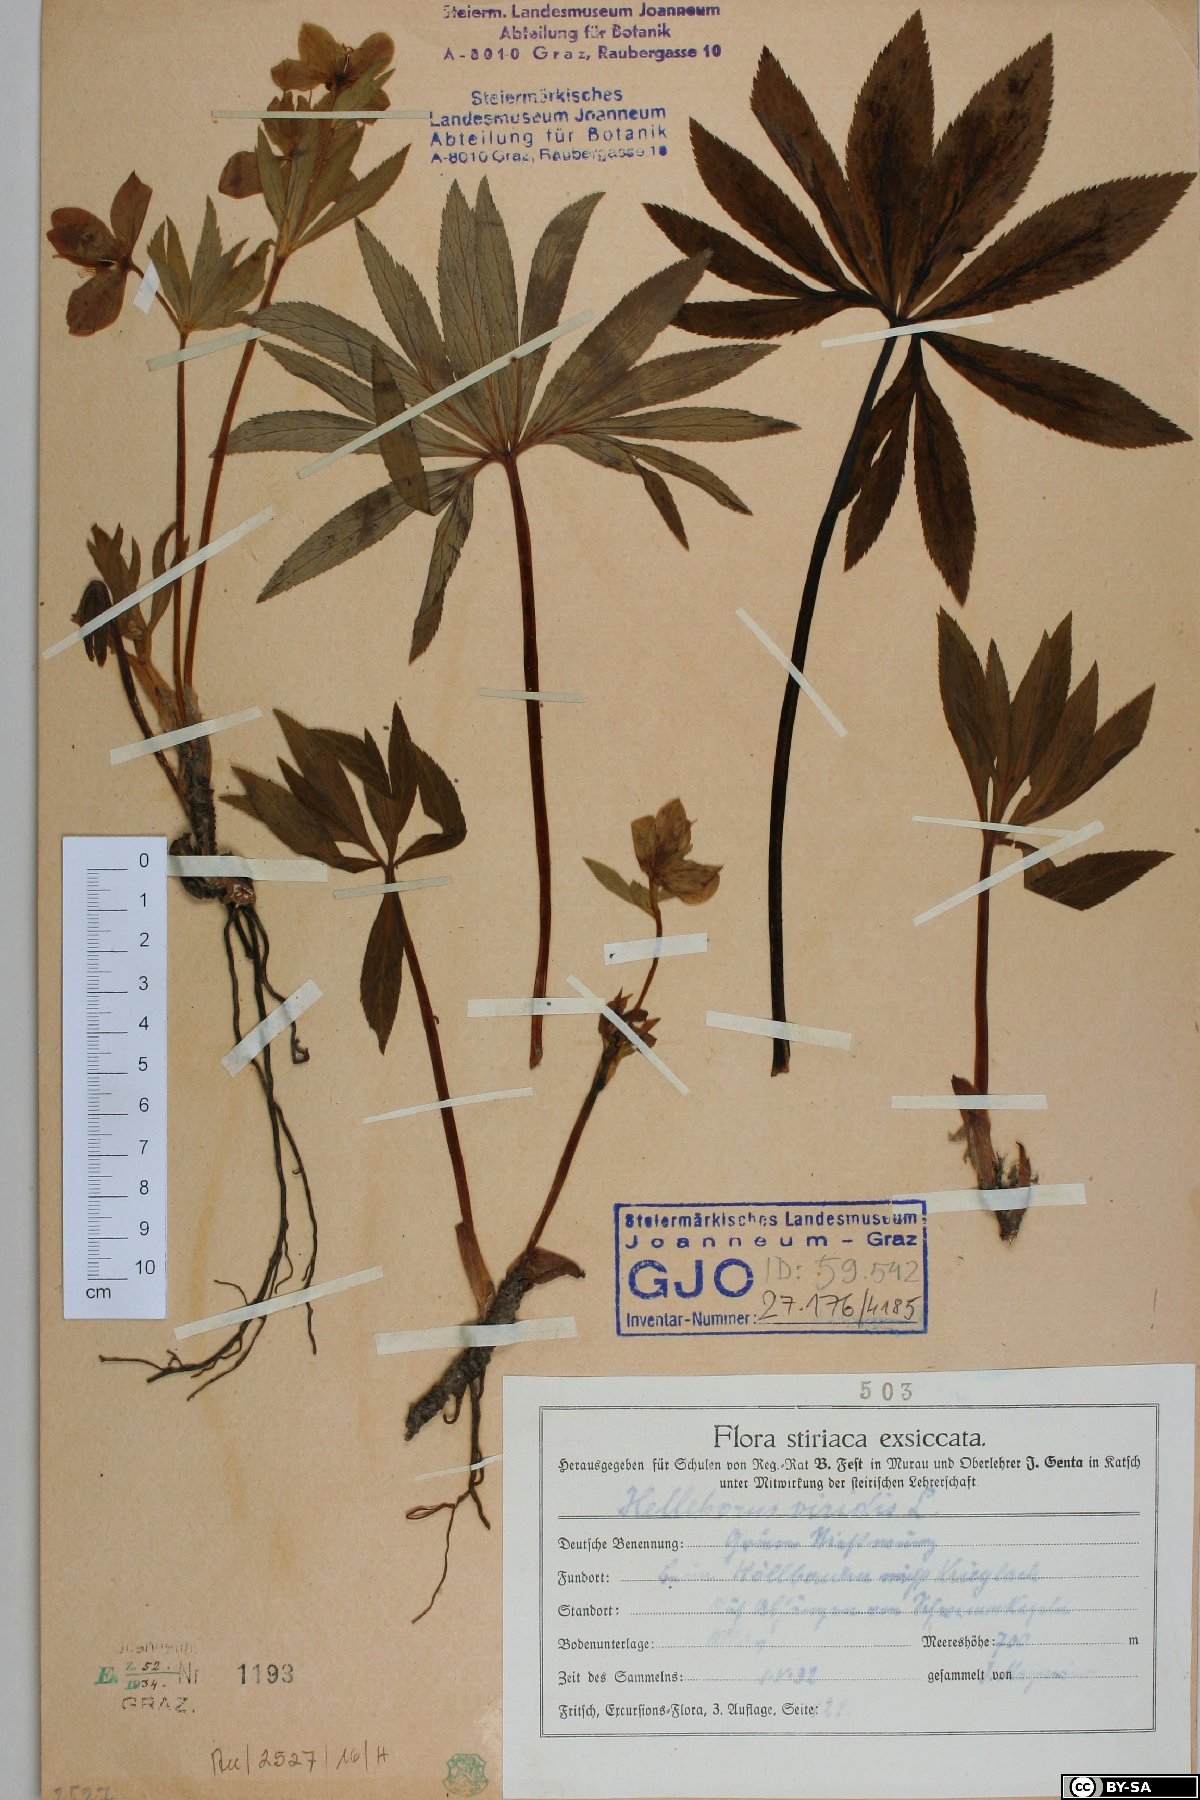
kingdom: Plantae
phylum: Tracheophyta
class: Magnoliopsida
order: Ranunculales
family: Ranunculaceae
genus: Helleborus
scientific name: Helleborus viridis
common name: Green hellebore
